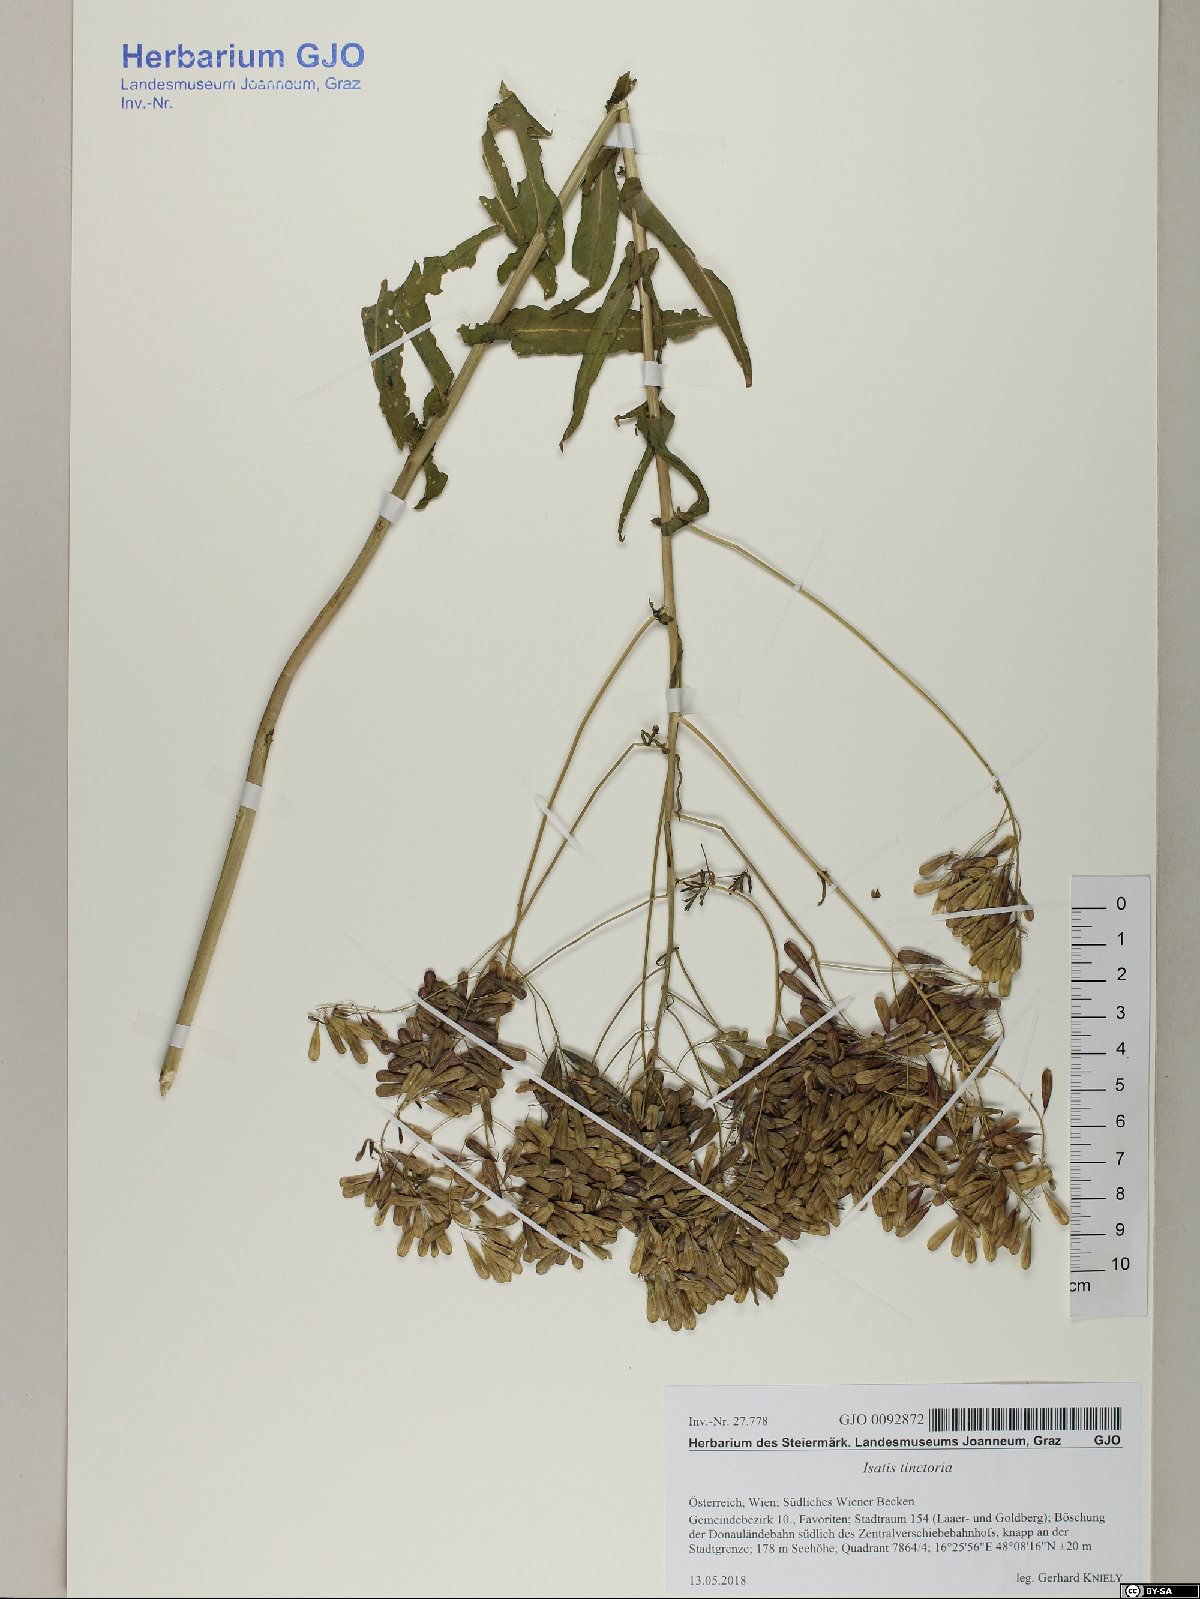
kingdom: Plantae
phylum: Tracheophyta
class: Magnoliopsida
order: Brassicales
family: Brassicaceae
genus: Isatis
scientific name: Isatis tinctoria
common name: Woad
